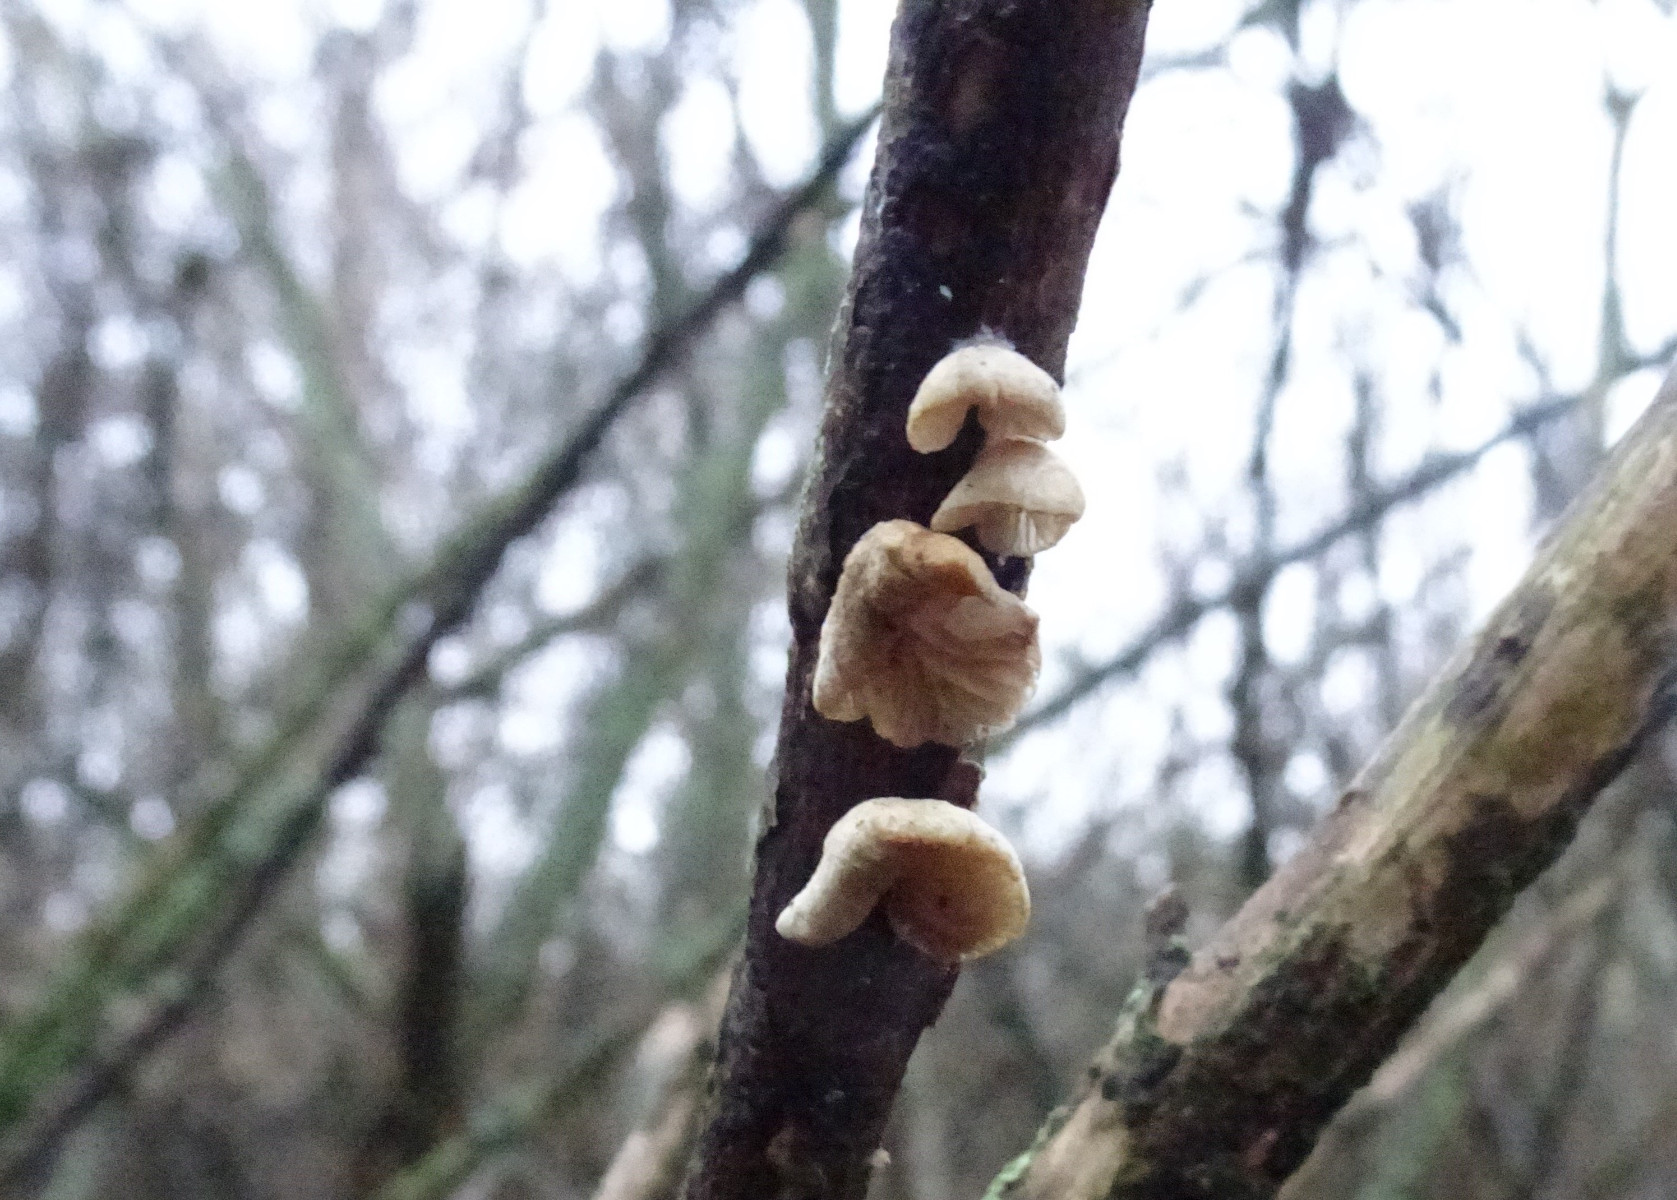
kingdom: Fungi
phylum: Basidiomycota
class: Agaricomycetes
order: Agaricales
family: Crepidotaceae
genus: Crepidotus
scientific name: Crepidotus
